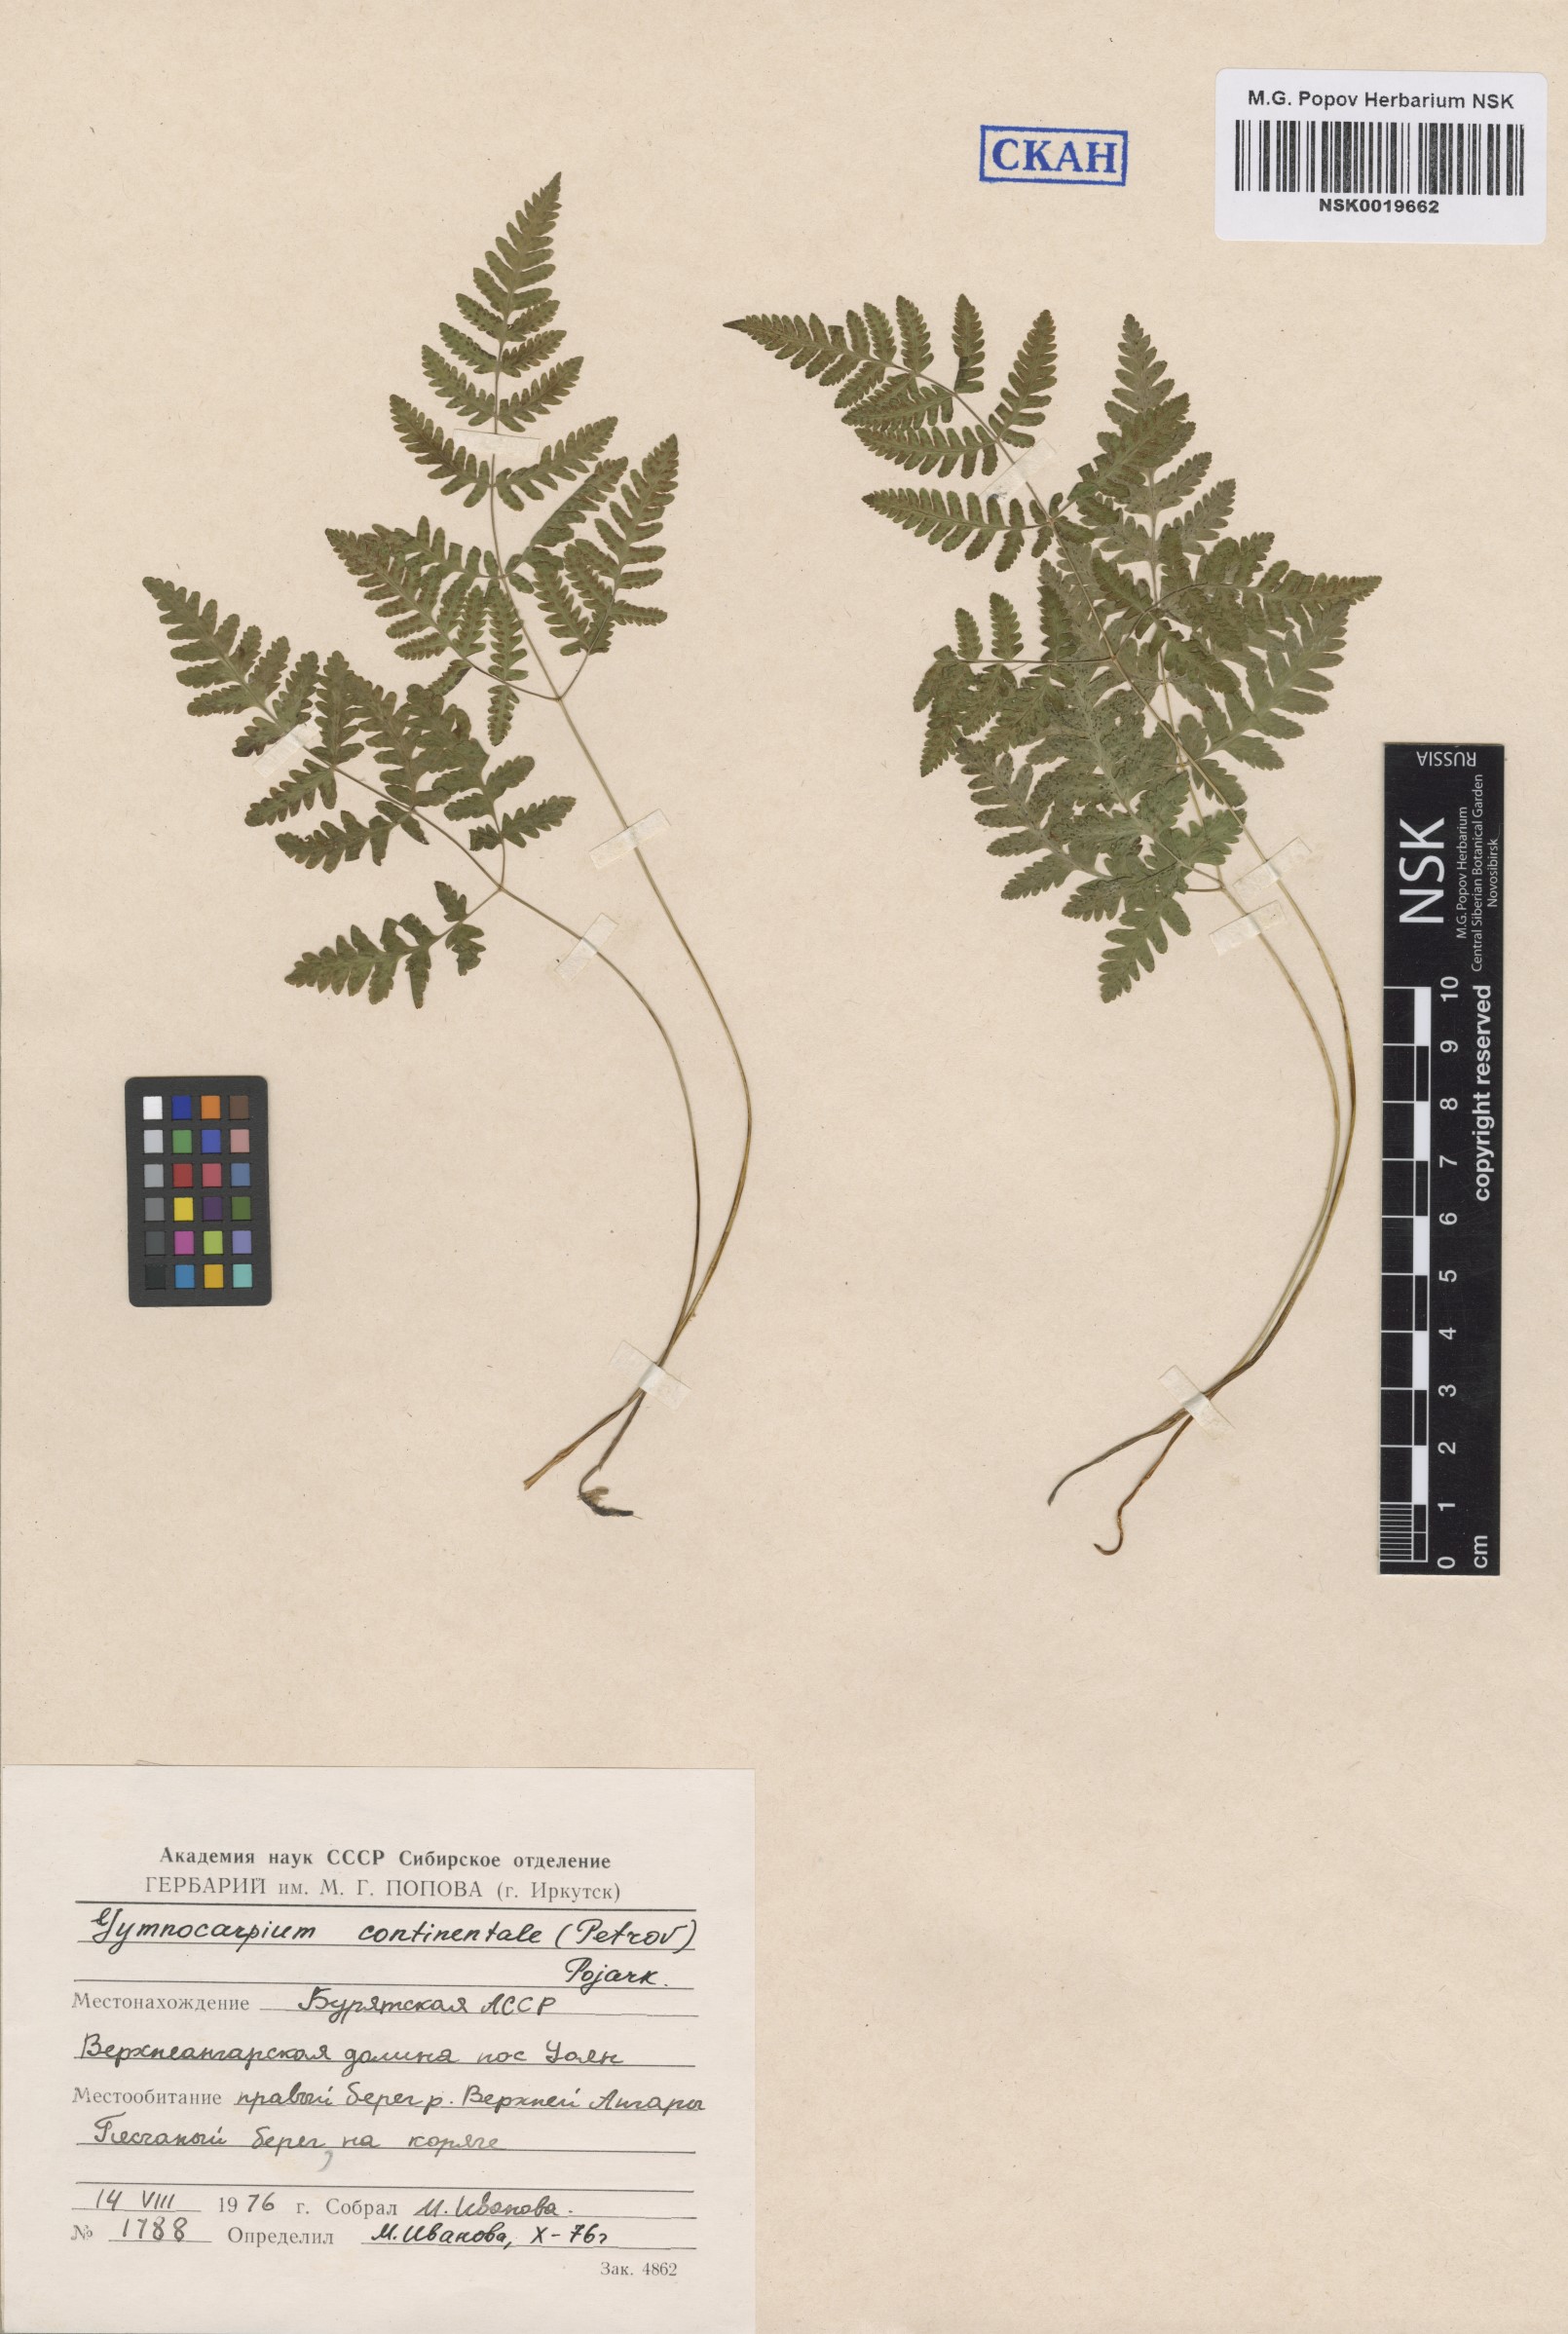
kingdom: Plantae
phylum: Tracheophyta
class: Polypodiopsida
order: Polypodiales
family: Cystopteridaceae
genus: Gymnocarpium
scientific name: Gymnocarpium continentale
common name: Asian oak fern
